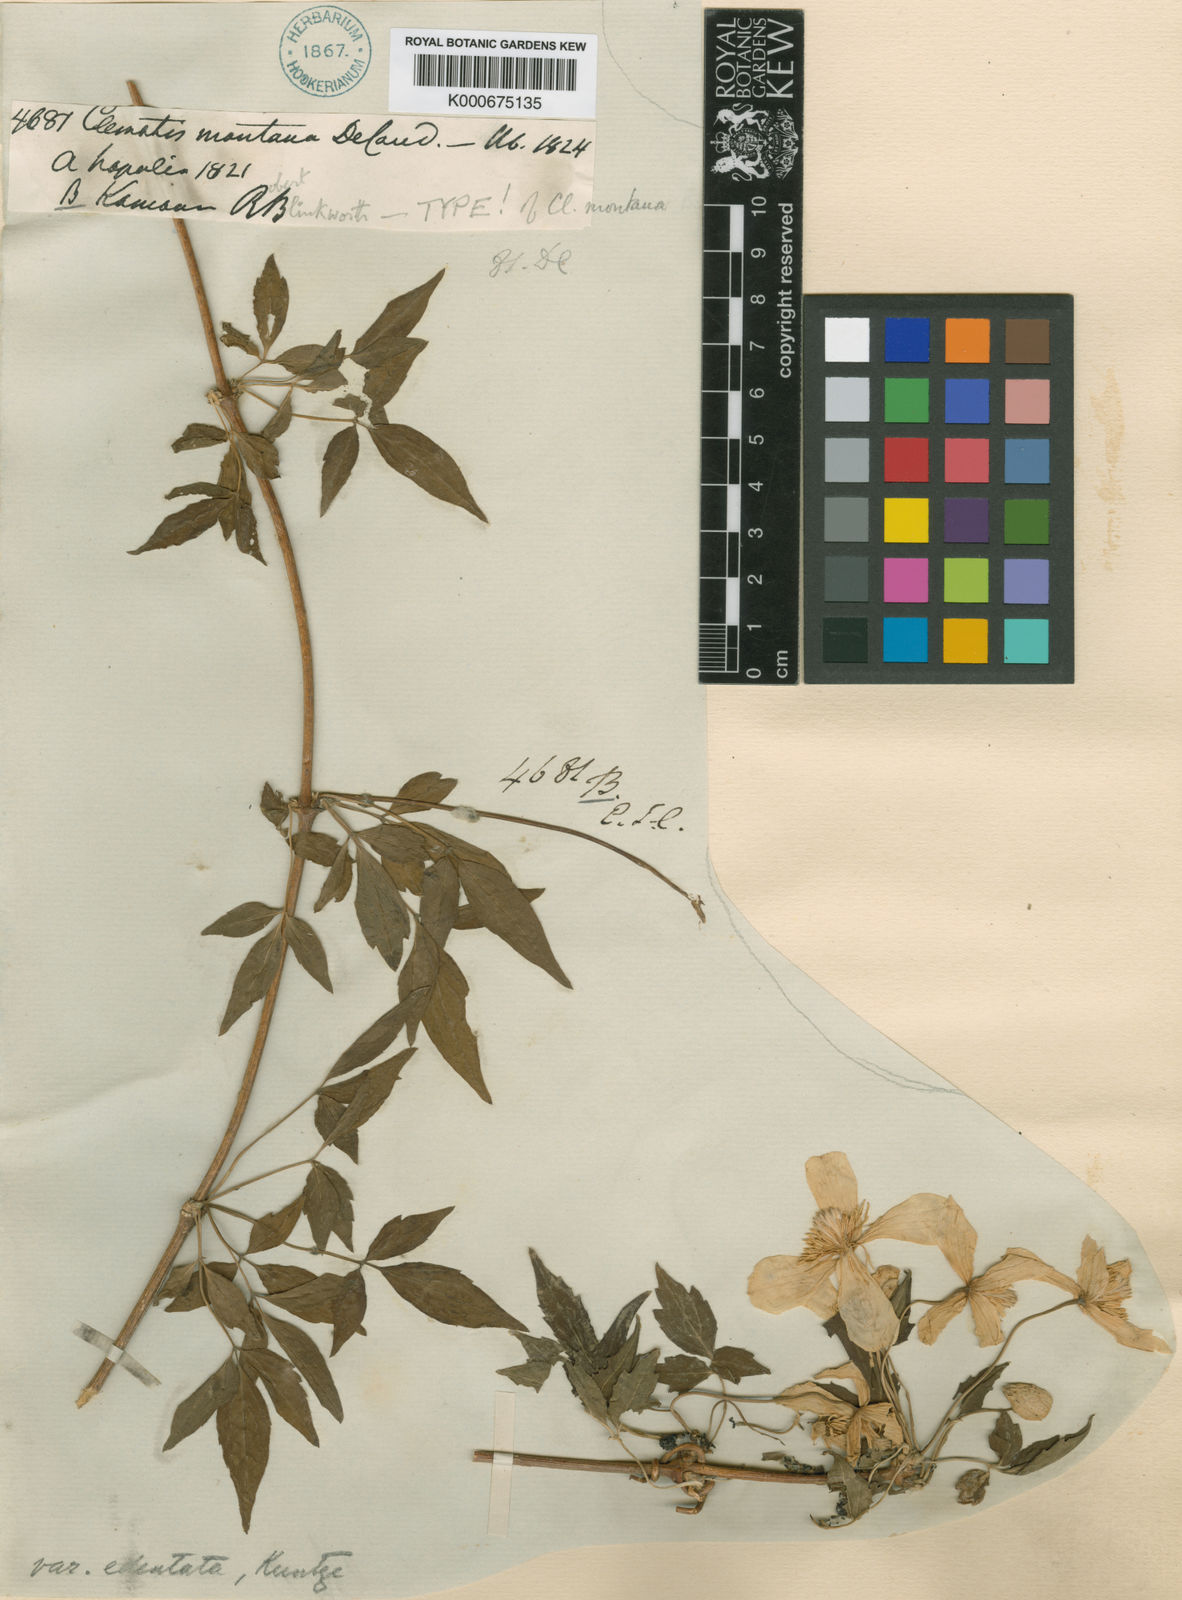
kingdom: Plantae
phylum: Tracheophyta
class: Magnoliopsida
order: Ranunculales
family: Ranunculaceae
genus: Clematis
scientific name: Clematis montana
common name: Himalayan clematis
